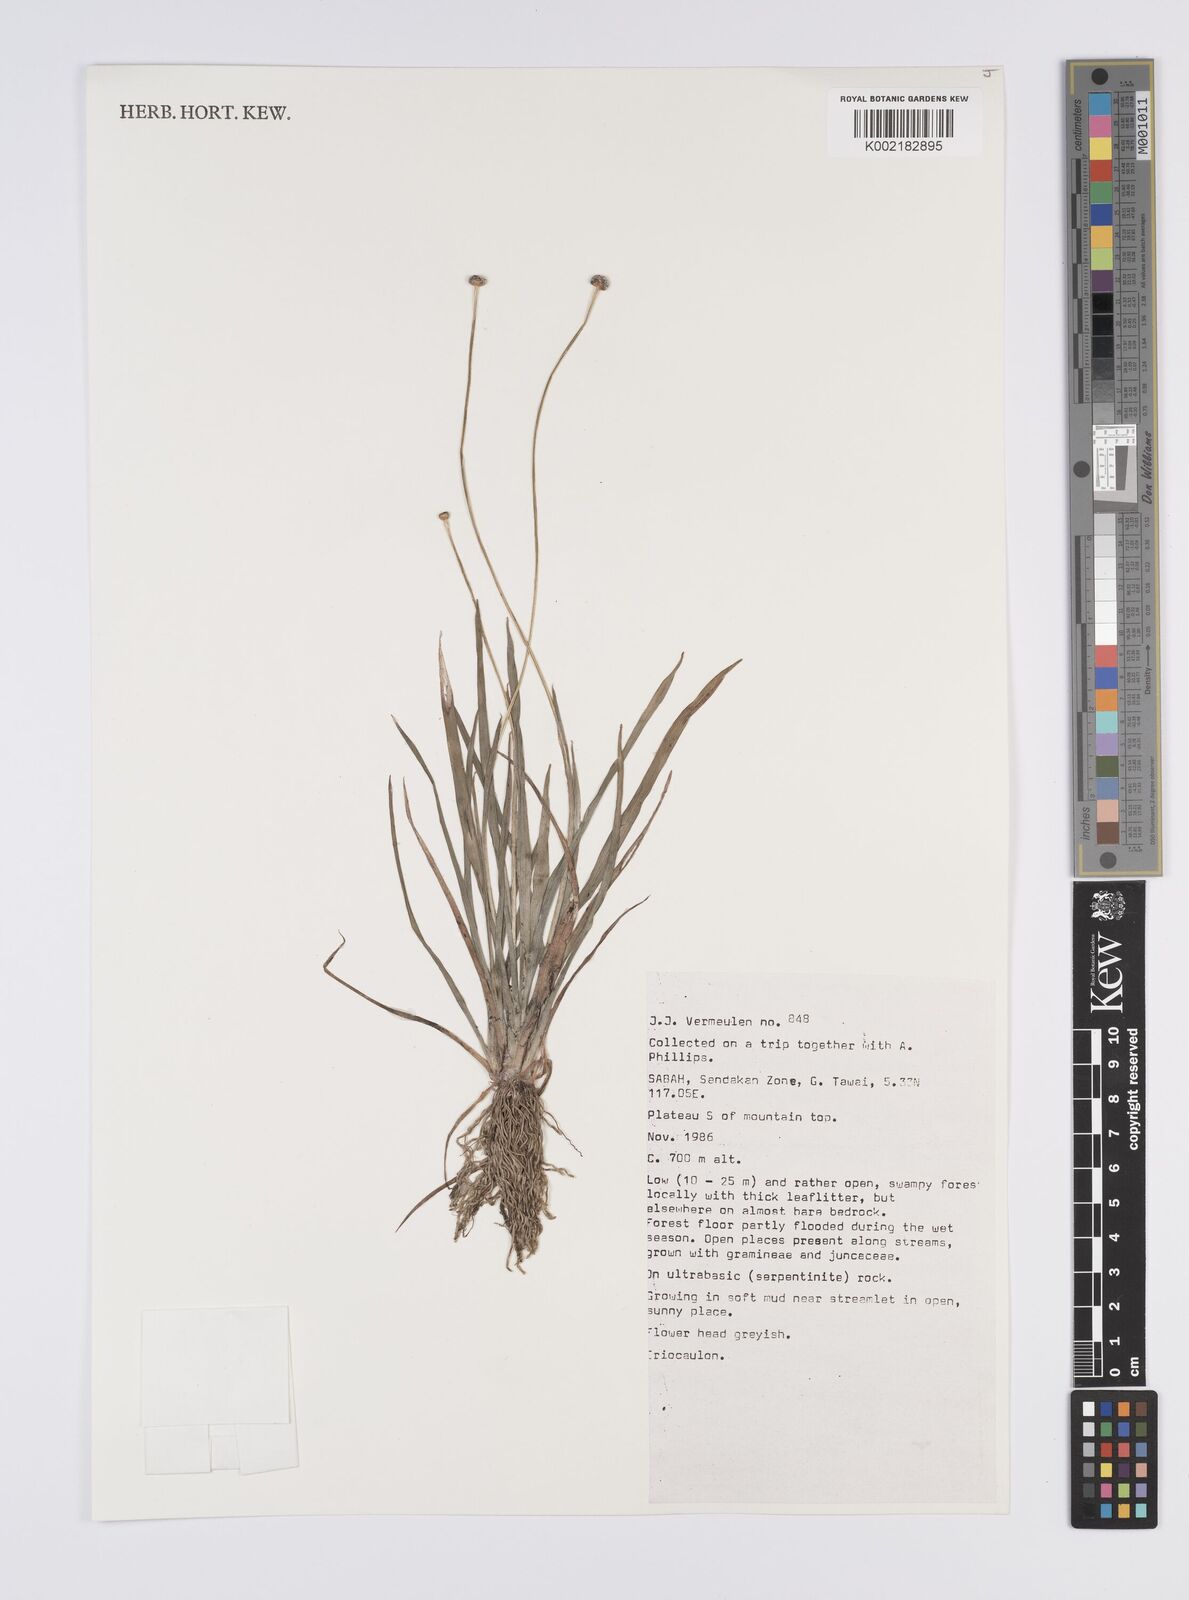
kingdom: Plantae
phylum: Tracheophyta
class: Liliopsida
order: Poales
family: Eriocaulaceae
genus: Eriocaulon
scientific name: Eriocaulon
